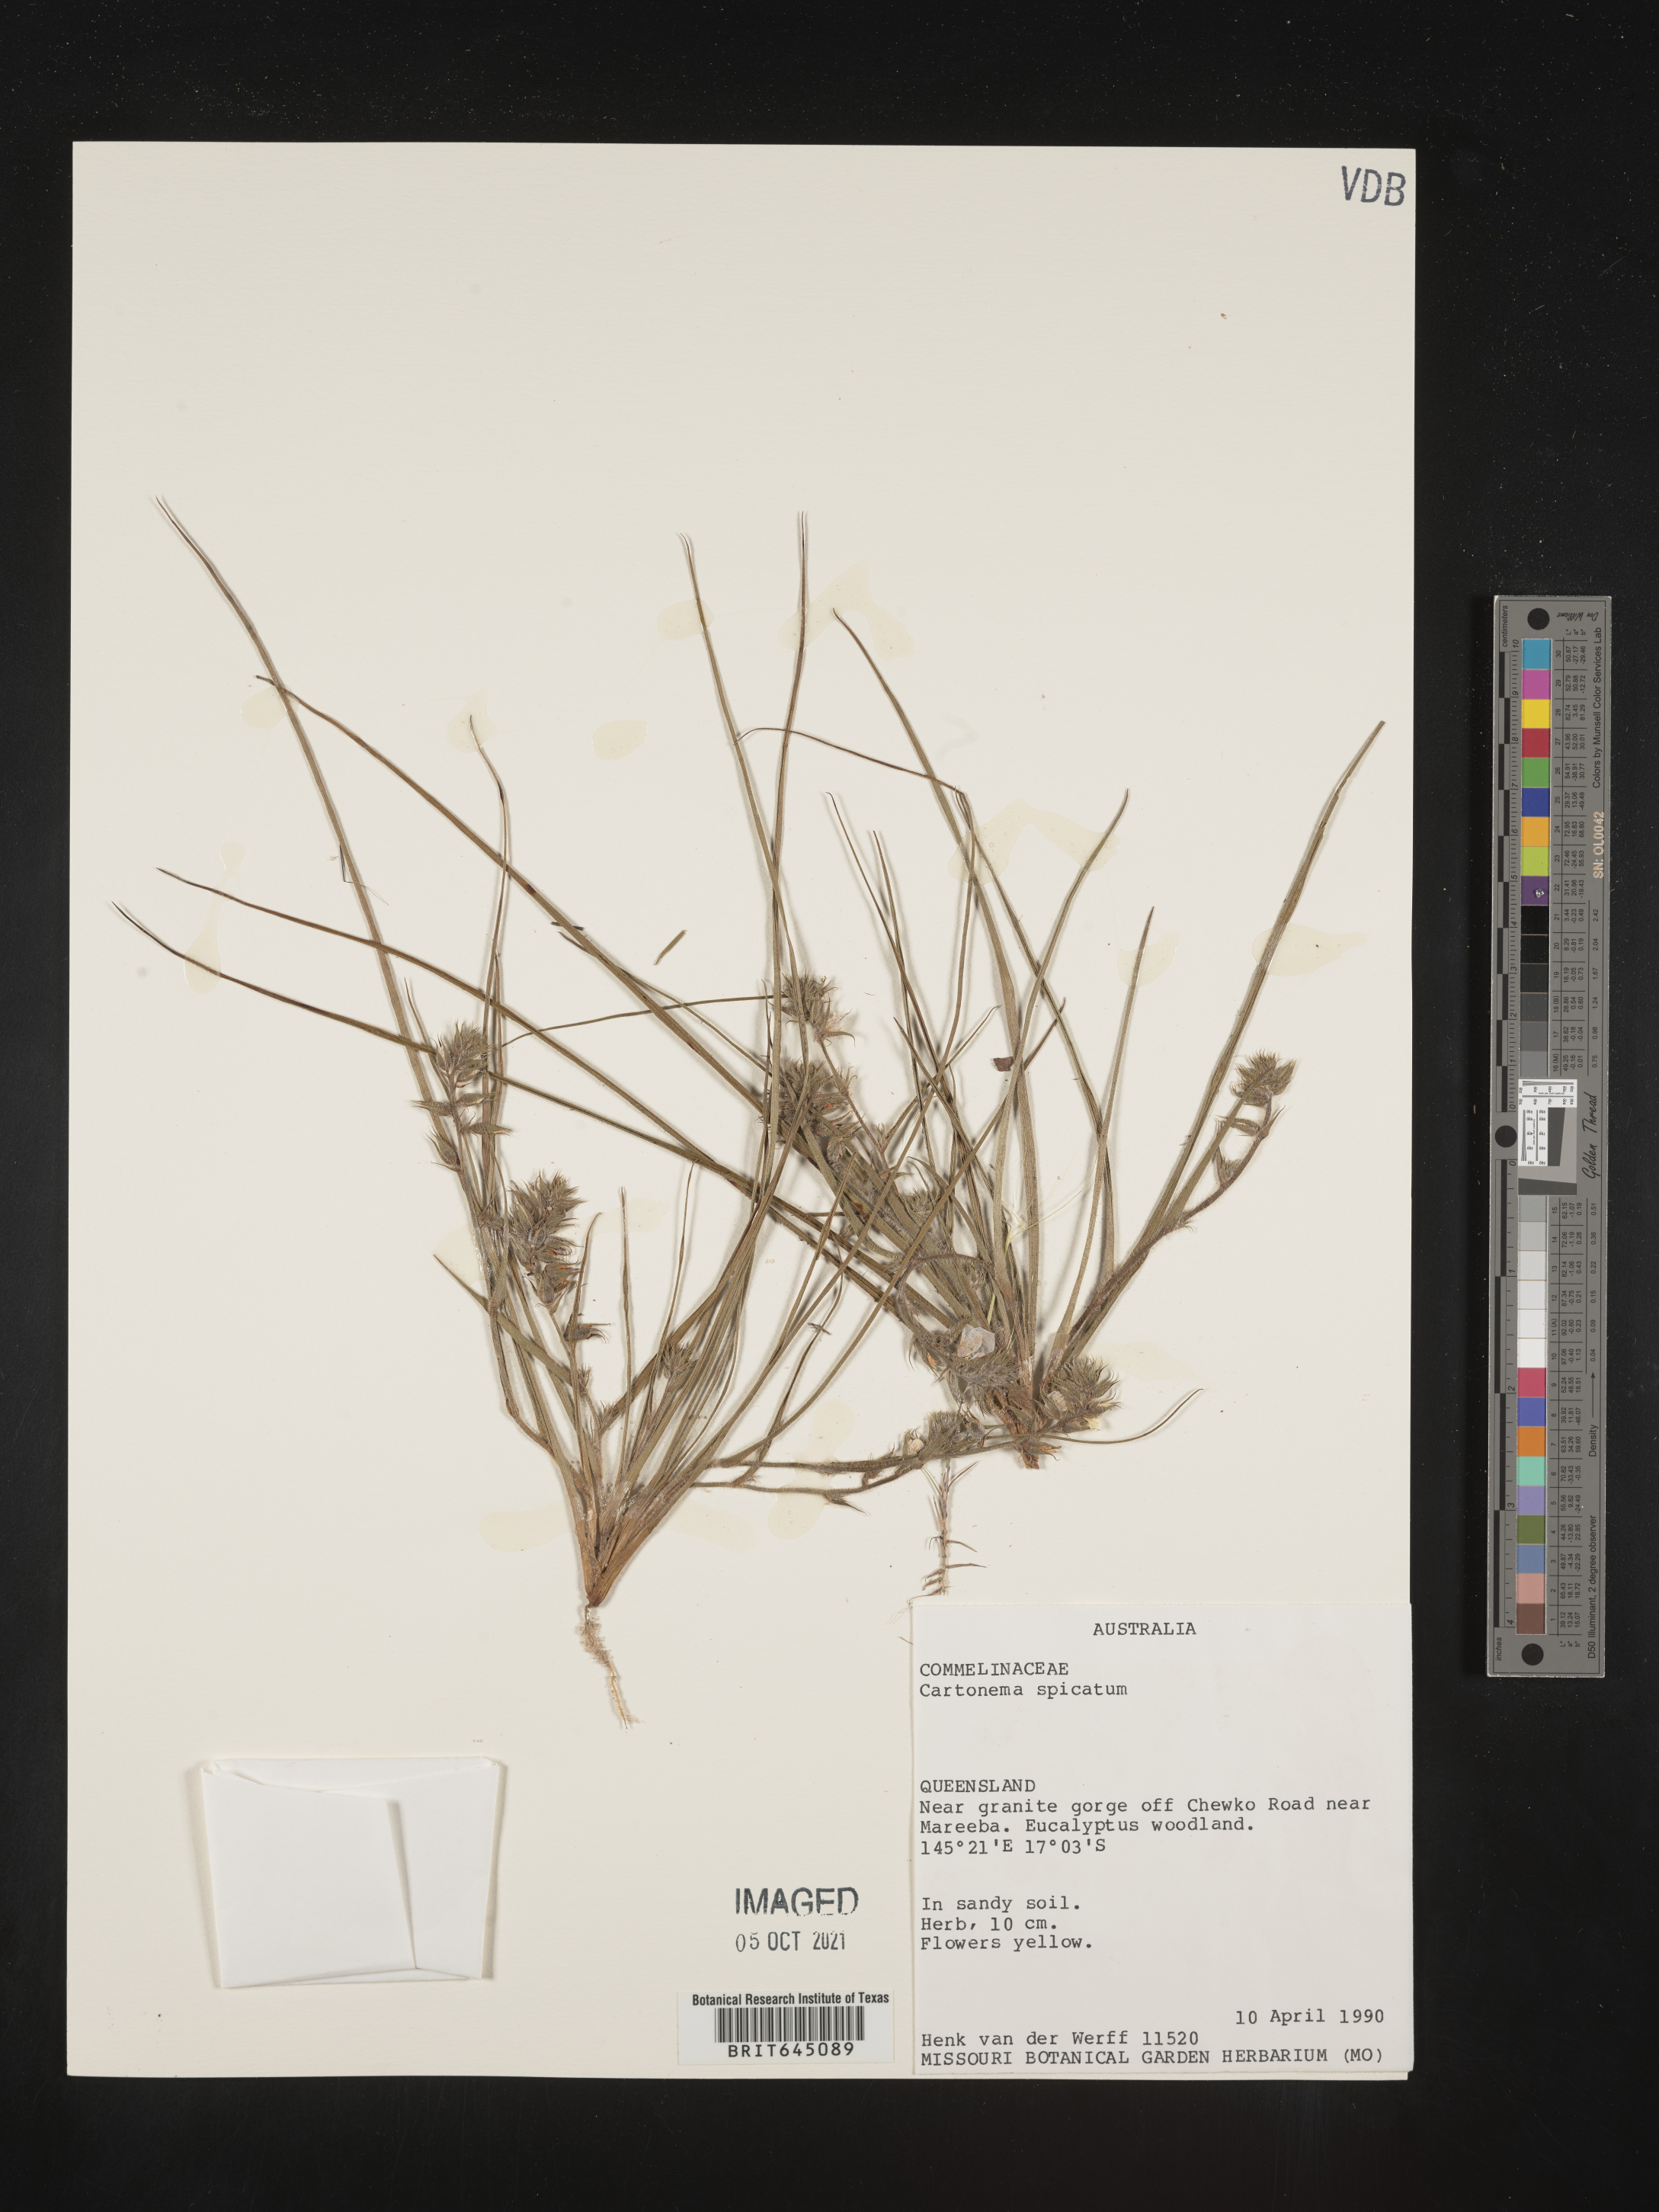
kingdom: Plantae
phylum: Tracheophyta
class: Liliopsida
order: Commelinales
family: Commelinaceae
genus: Cartonema
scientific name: Cartonema spicatum
